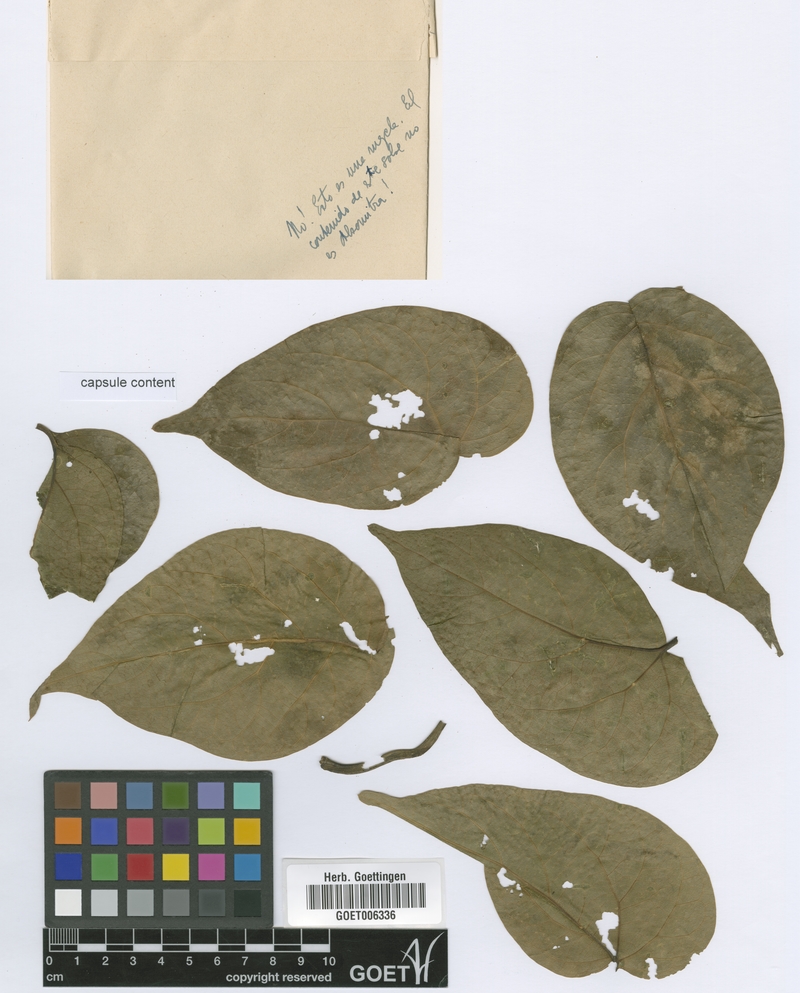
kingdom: Plantae
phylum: Tracheophyta
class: Magnoliopsida
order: Cucurbitales
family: Cucurbitaceae
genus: Siolmatra
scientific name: Siolmatra brasiliensis
